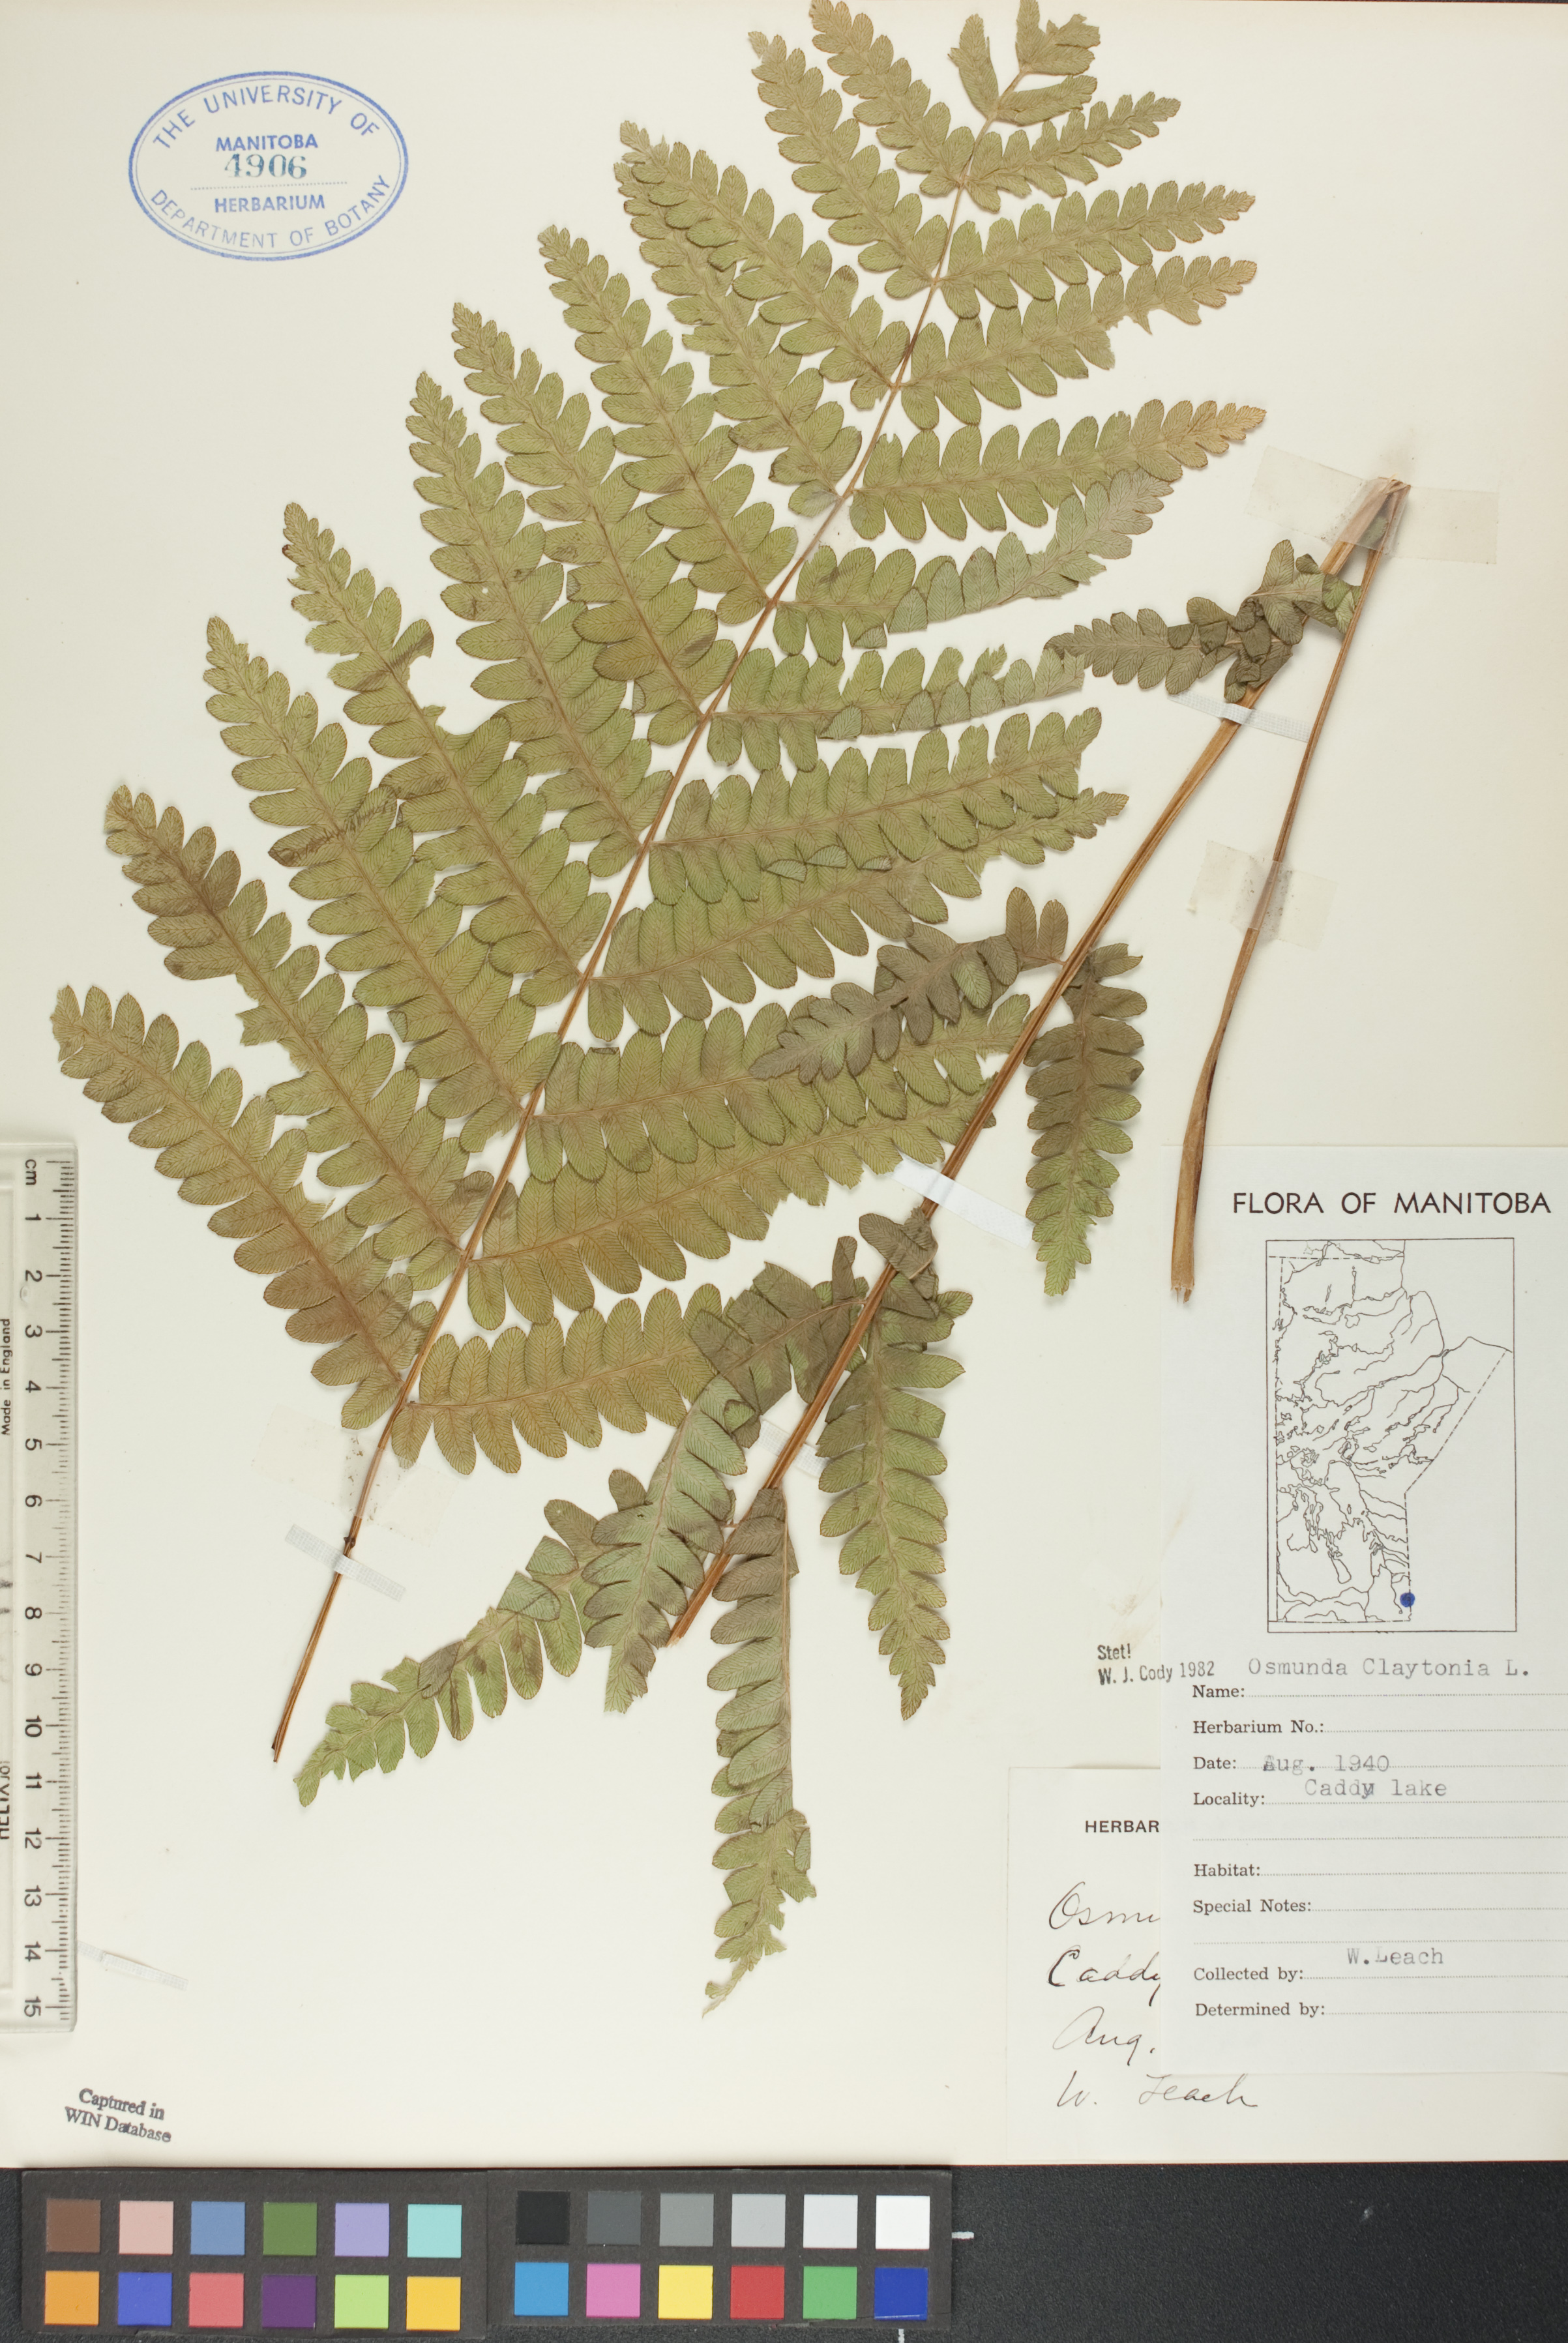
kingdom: Plantae
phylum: Tracheophyta
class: Polypodiopsida
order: Osmundales
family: Osmundaceae
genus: Claytosmunda
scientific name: Claytosmunda claytoniana
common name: Clayton's fern
